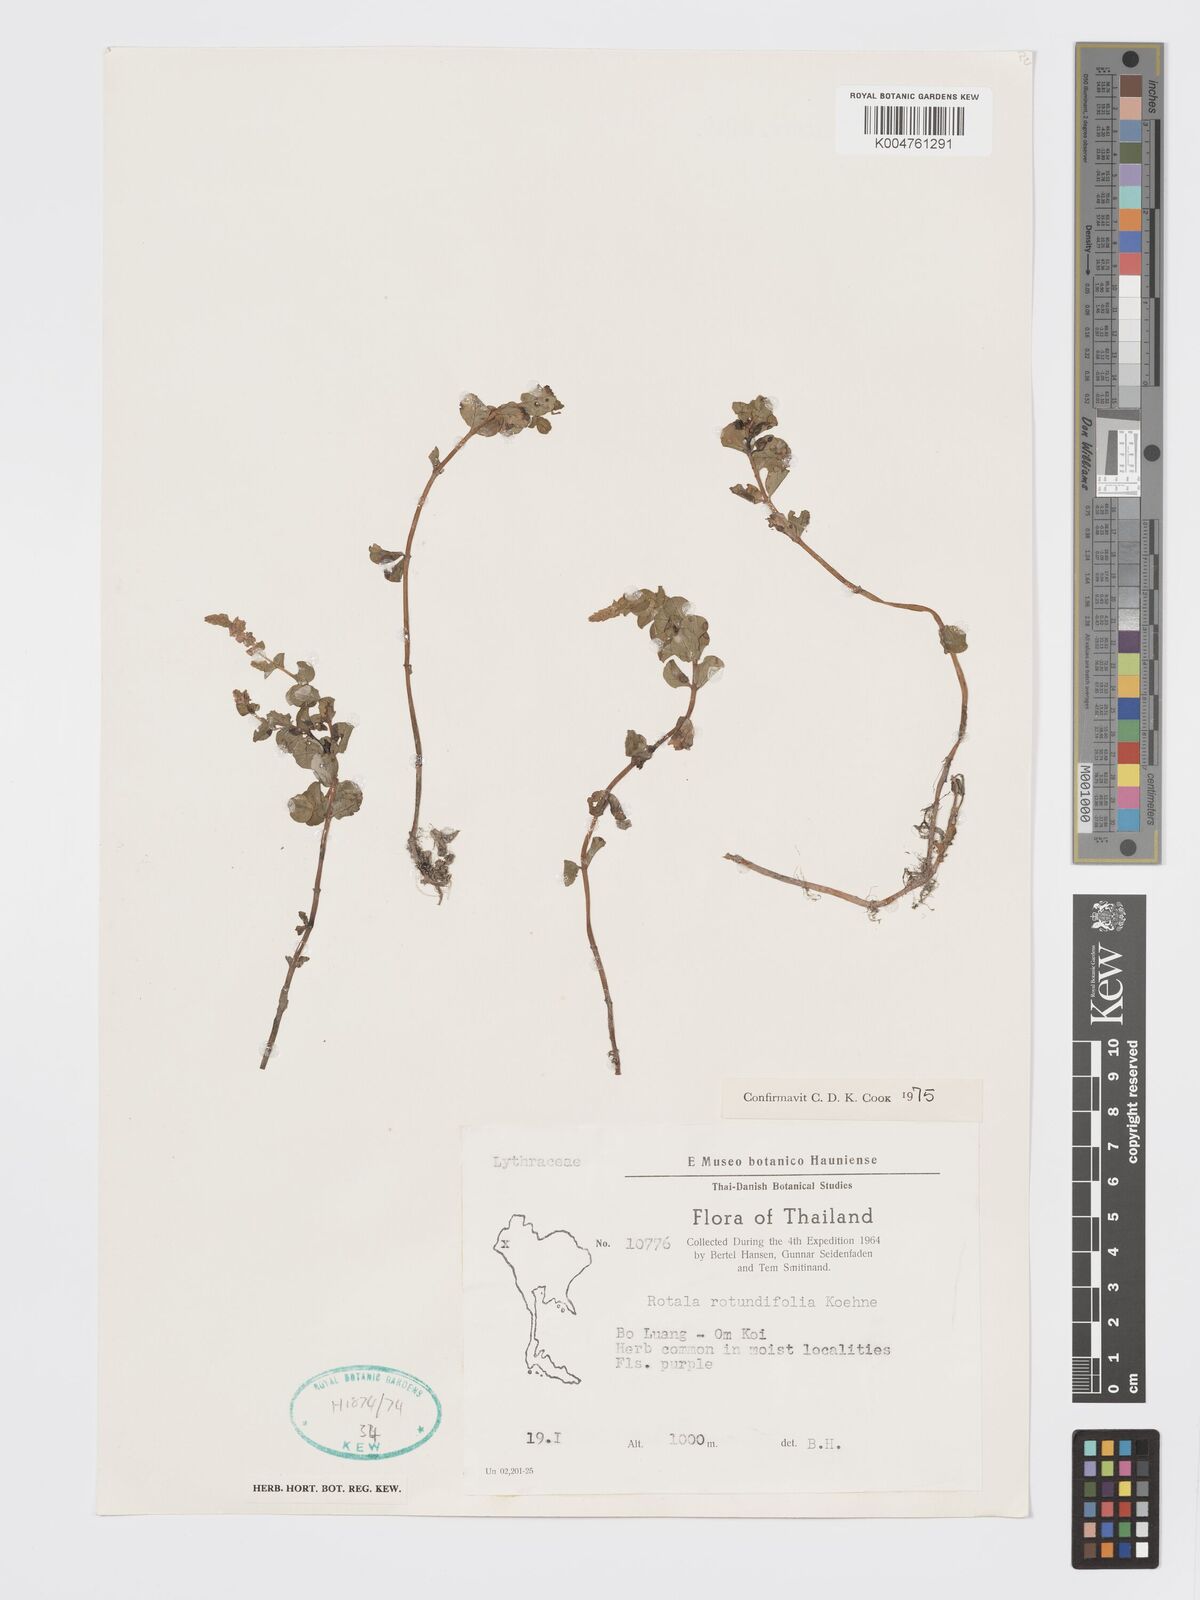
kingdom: Plantae
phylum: Tracheophyta
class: Magnoliopsida
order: Myrtales
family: Lythraceae
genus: Rotala
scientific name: Rotala rotundifolia
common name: Roundleaf toothcup
